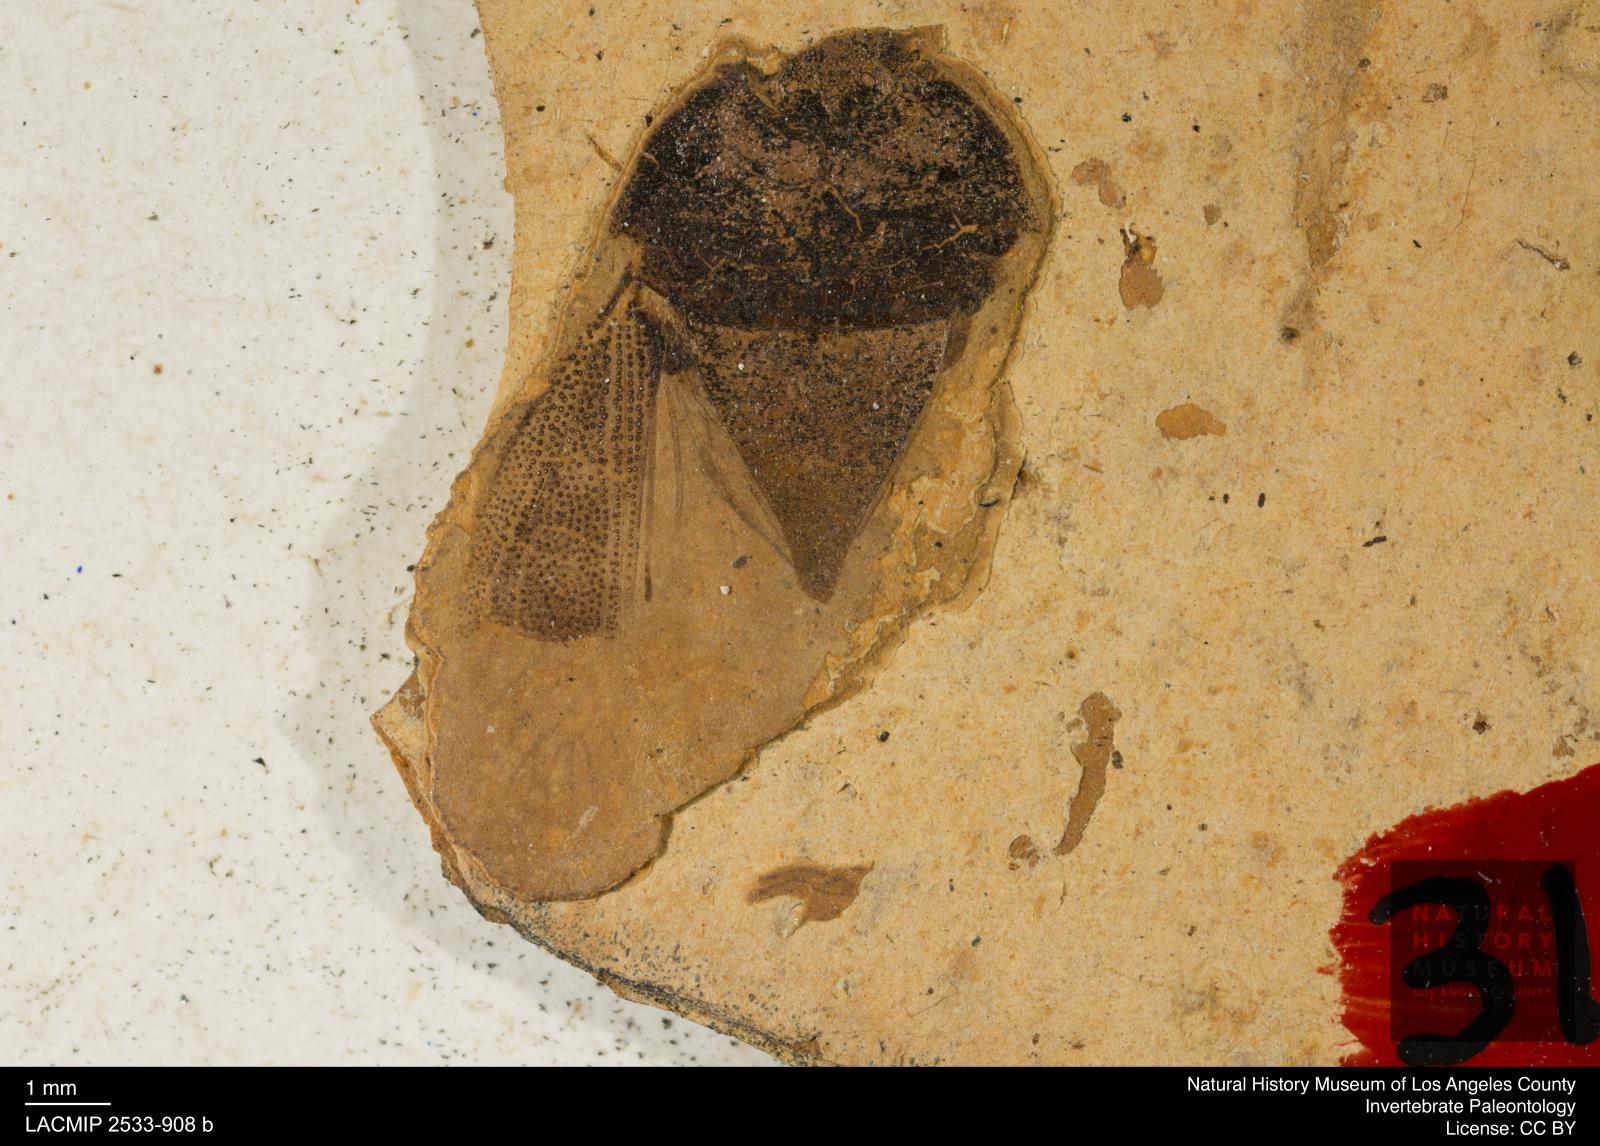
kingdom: Animalia
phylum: Arthropoda
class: Insecta
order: Hemiptera
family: Cydnidae
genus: Sehirus
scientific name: Sehirus lygaeus
